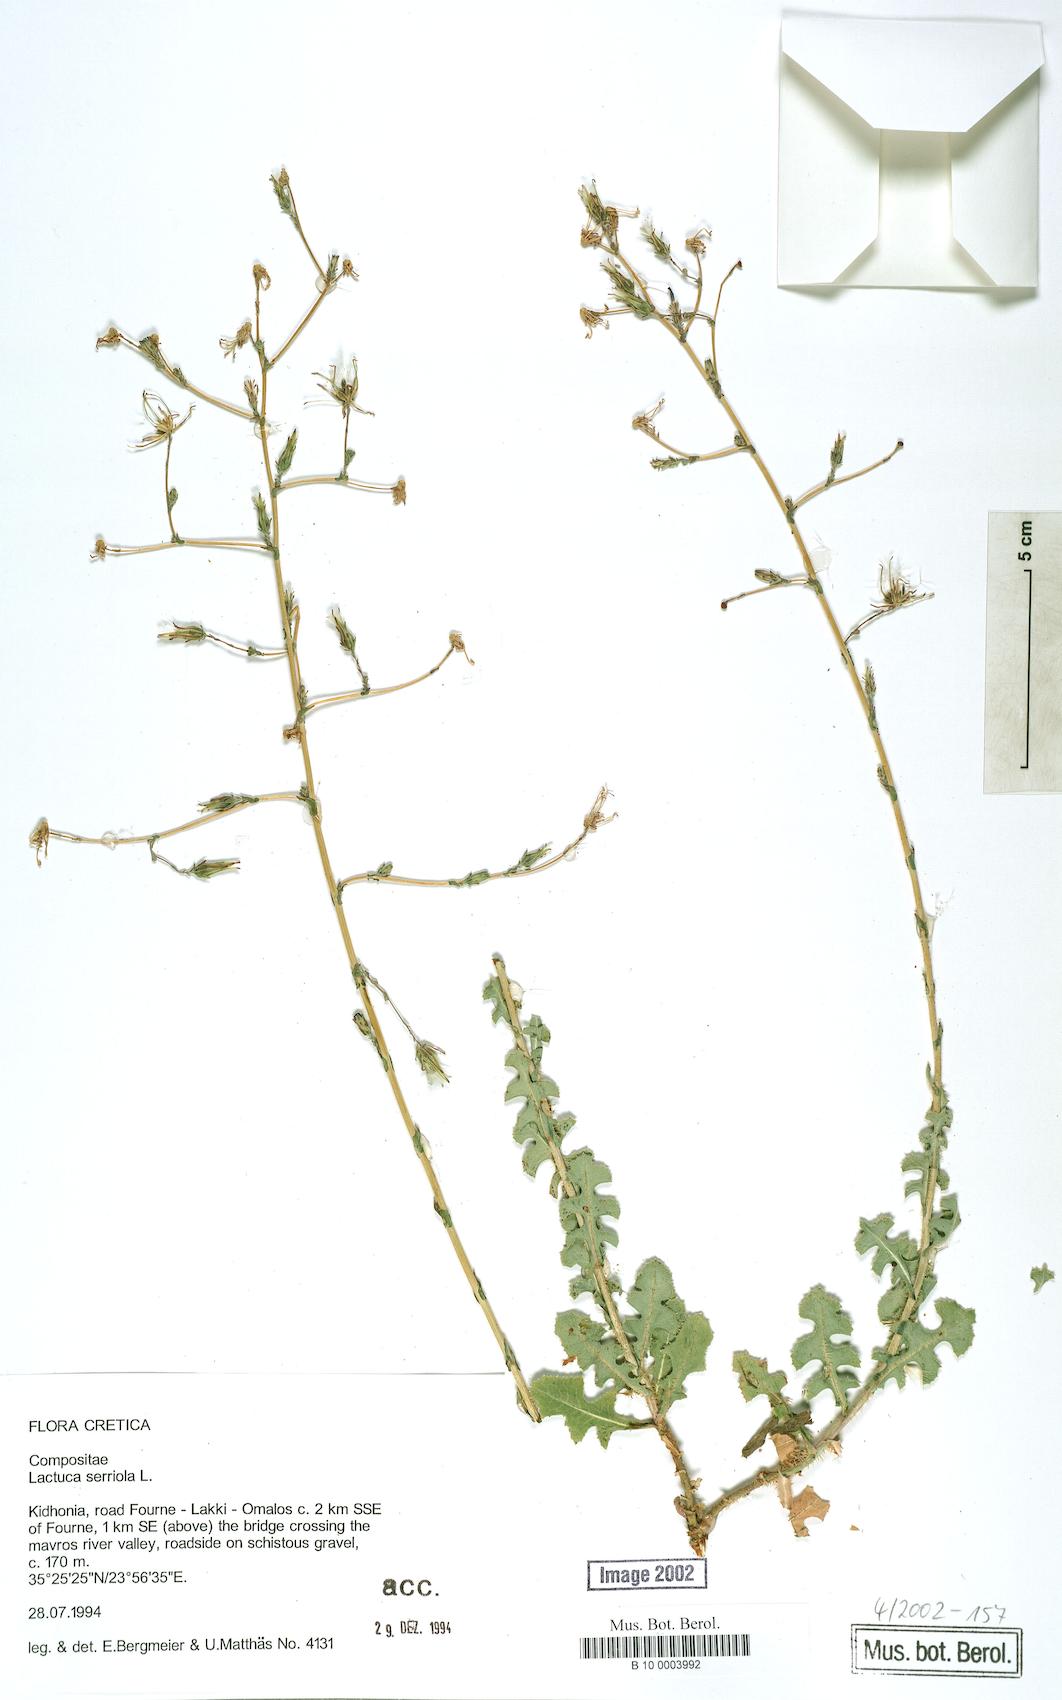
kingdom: Plantae
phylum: Tracheophyta
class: Magnoliopsida
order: Asterales
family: Asteraceae
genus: Lactuca
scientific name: Lactuca serriola
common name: Prickly lettuce
